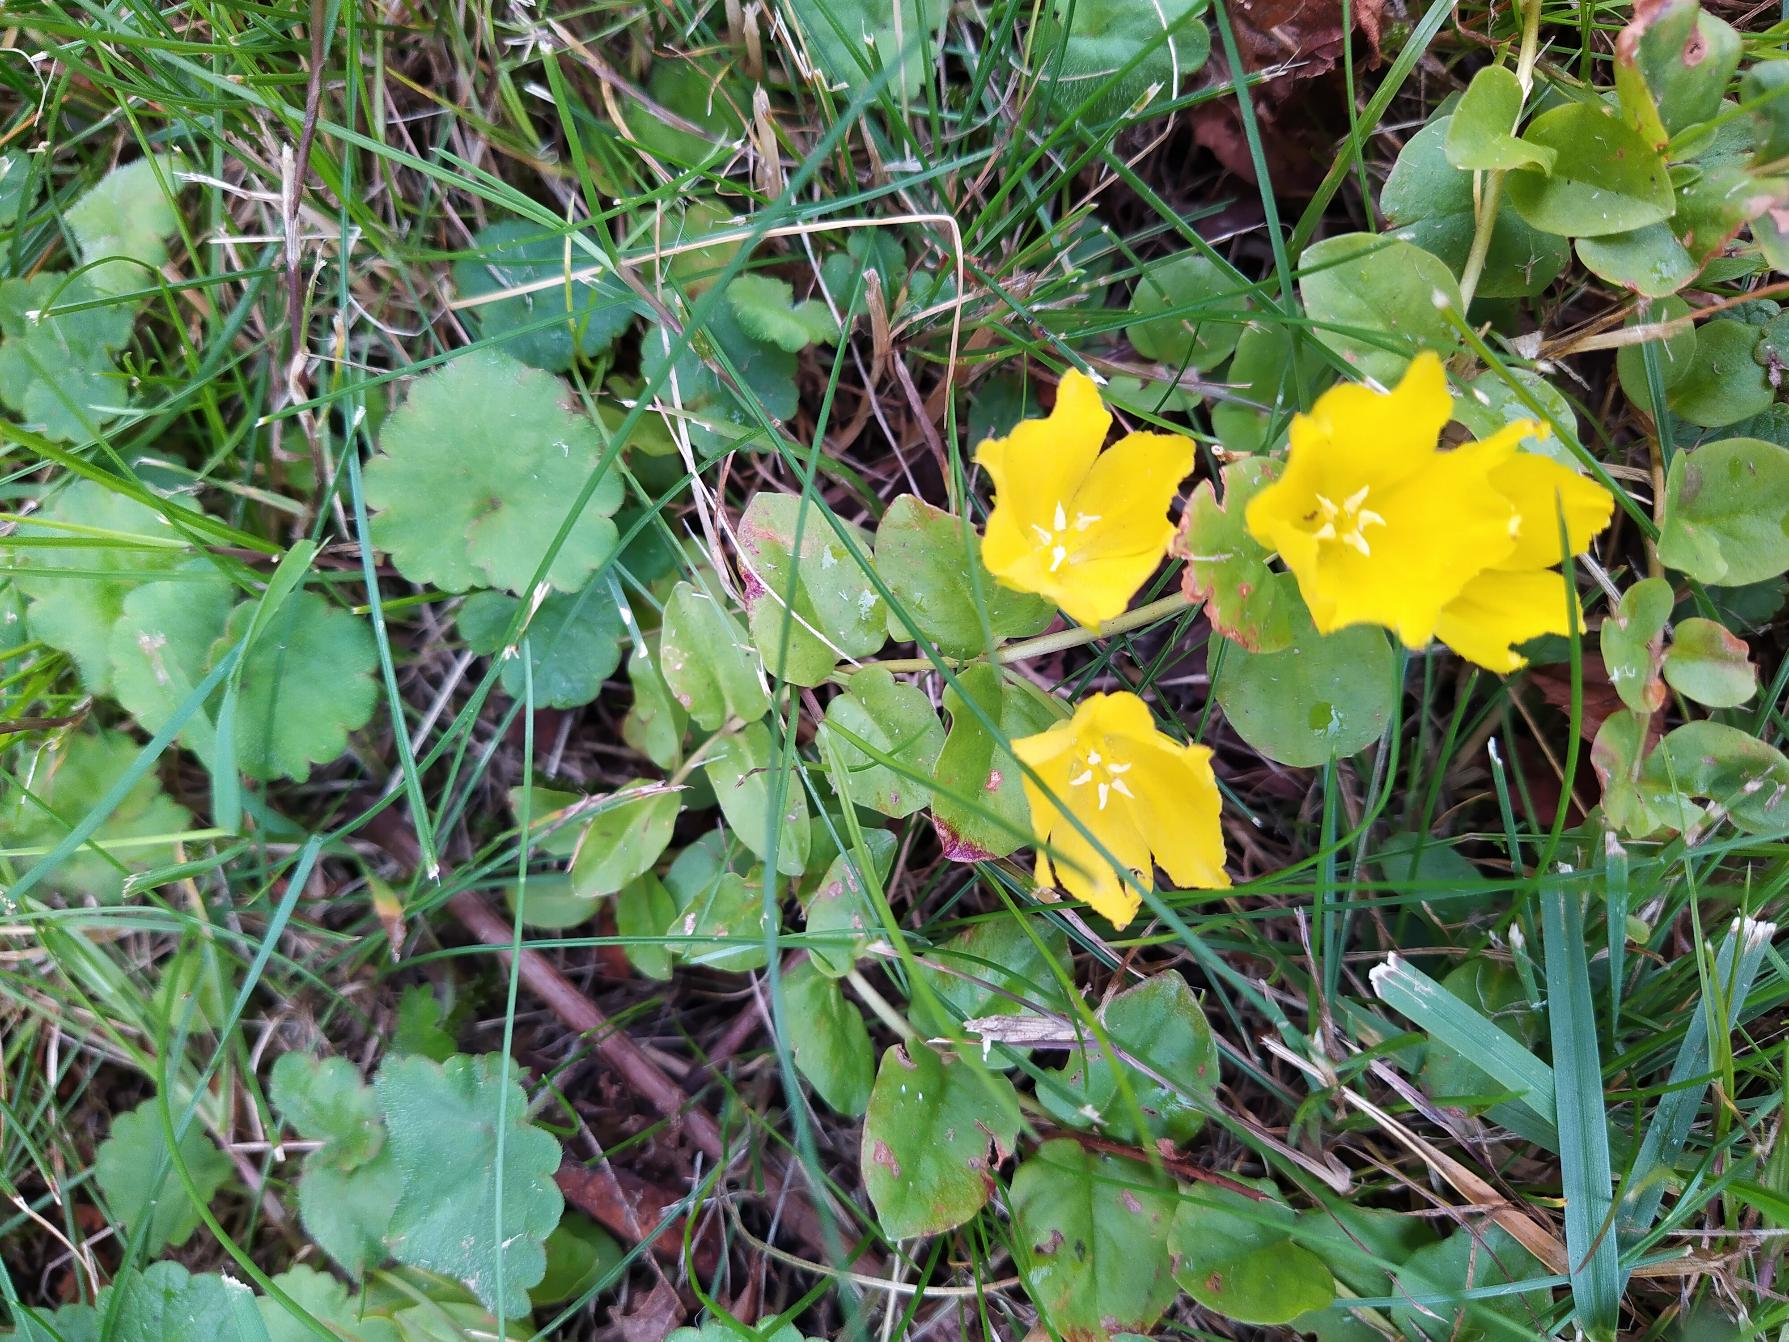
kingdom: Plantae
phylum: Tracheophyta
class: Magnoliopsida
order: Ericales
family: Primulaceae
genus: Lysimachia
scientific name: Lysimachia nummularia
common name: Pengebladet fredløs
